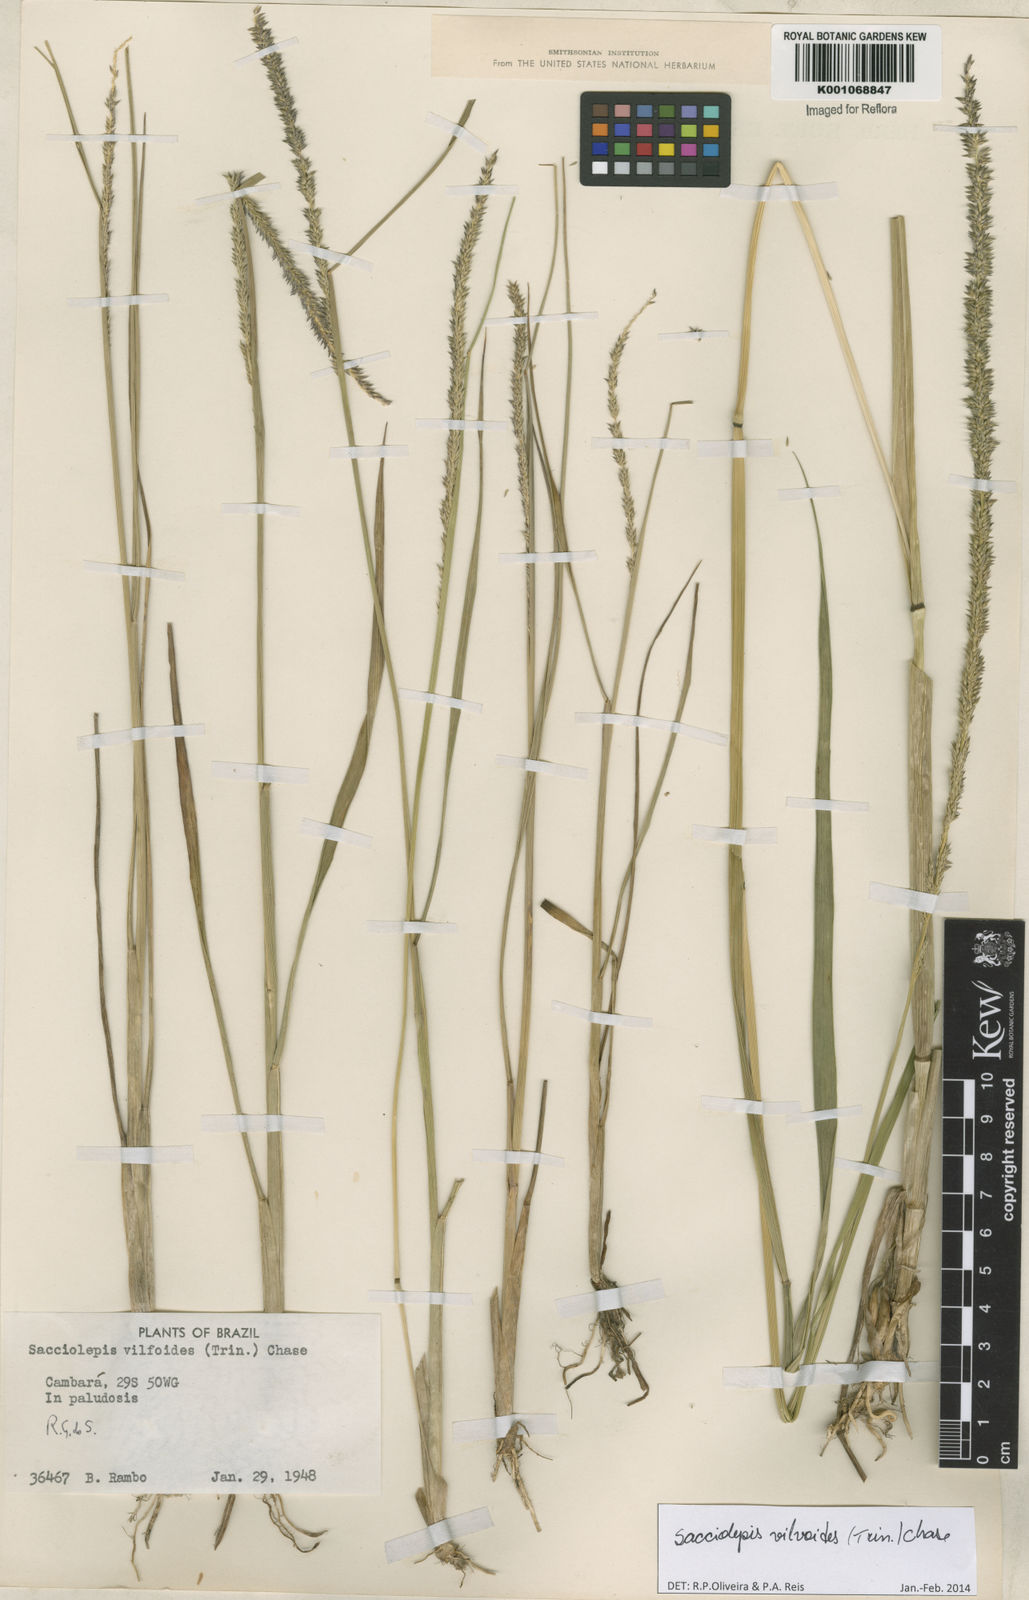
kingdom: Plantae
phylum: Tracheophyta
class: Liliopsida
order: Poales
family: Poaceae
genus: Sacciolepis
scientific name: Sacciolepis vilvoides
